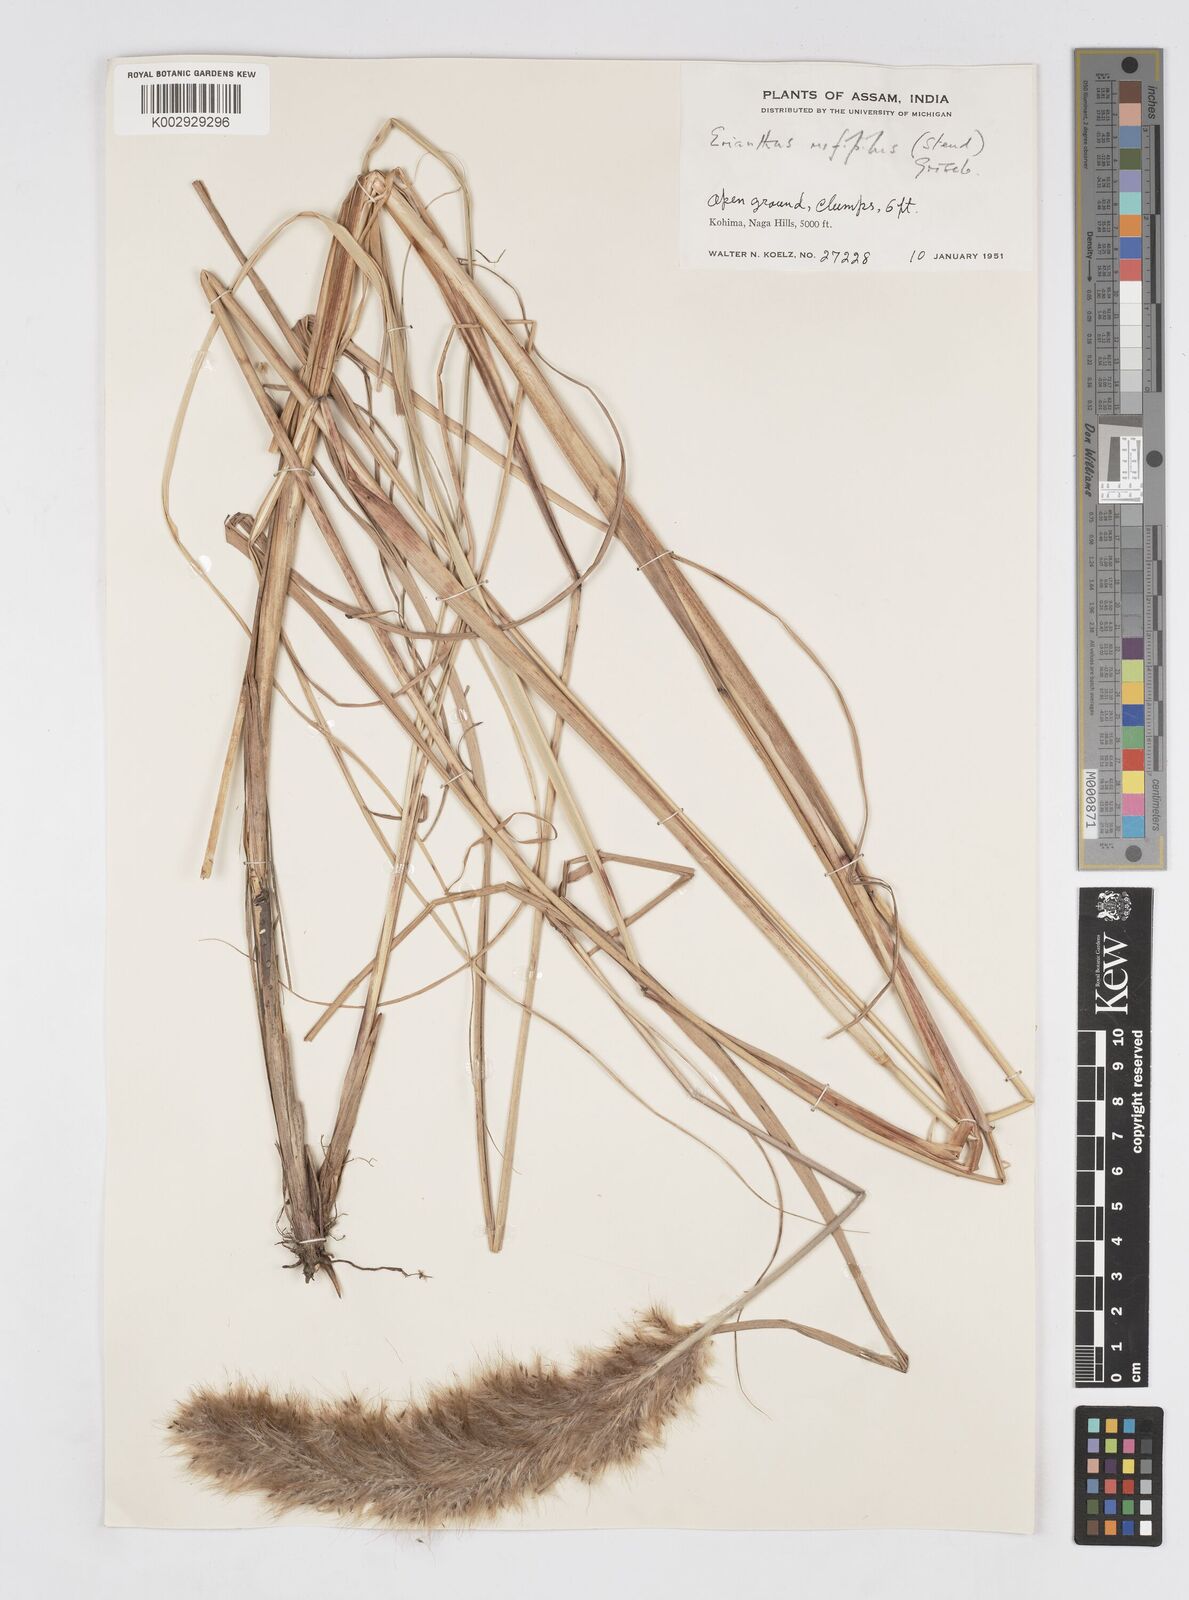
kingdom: Plantae
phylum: Tracheophyta
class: Liliopsida
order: Poales
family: Poaceae
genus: Tripidium
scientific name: Tripidium rufipilum
